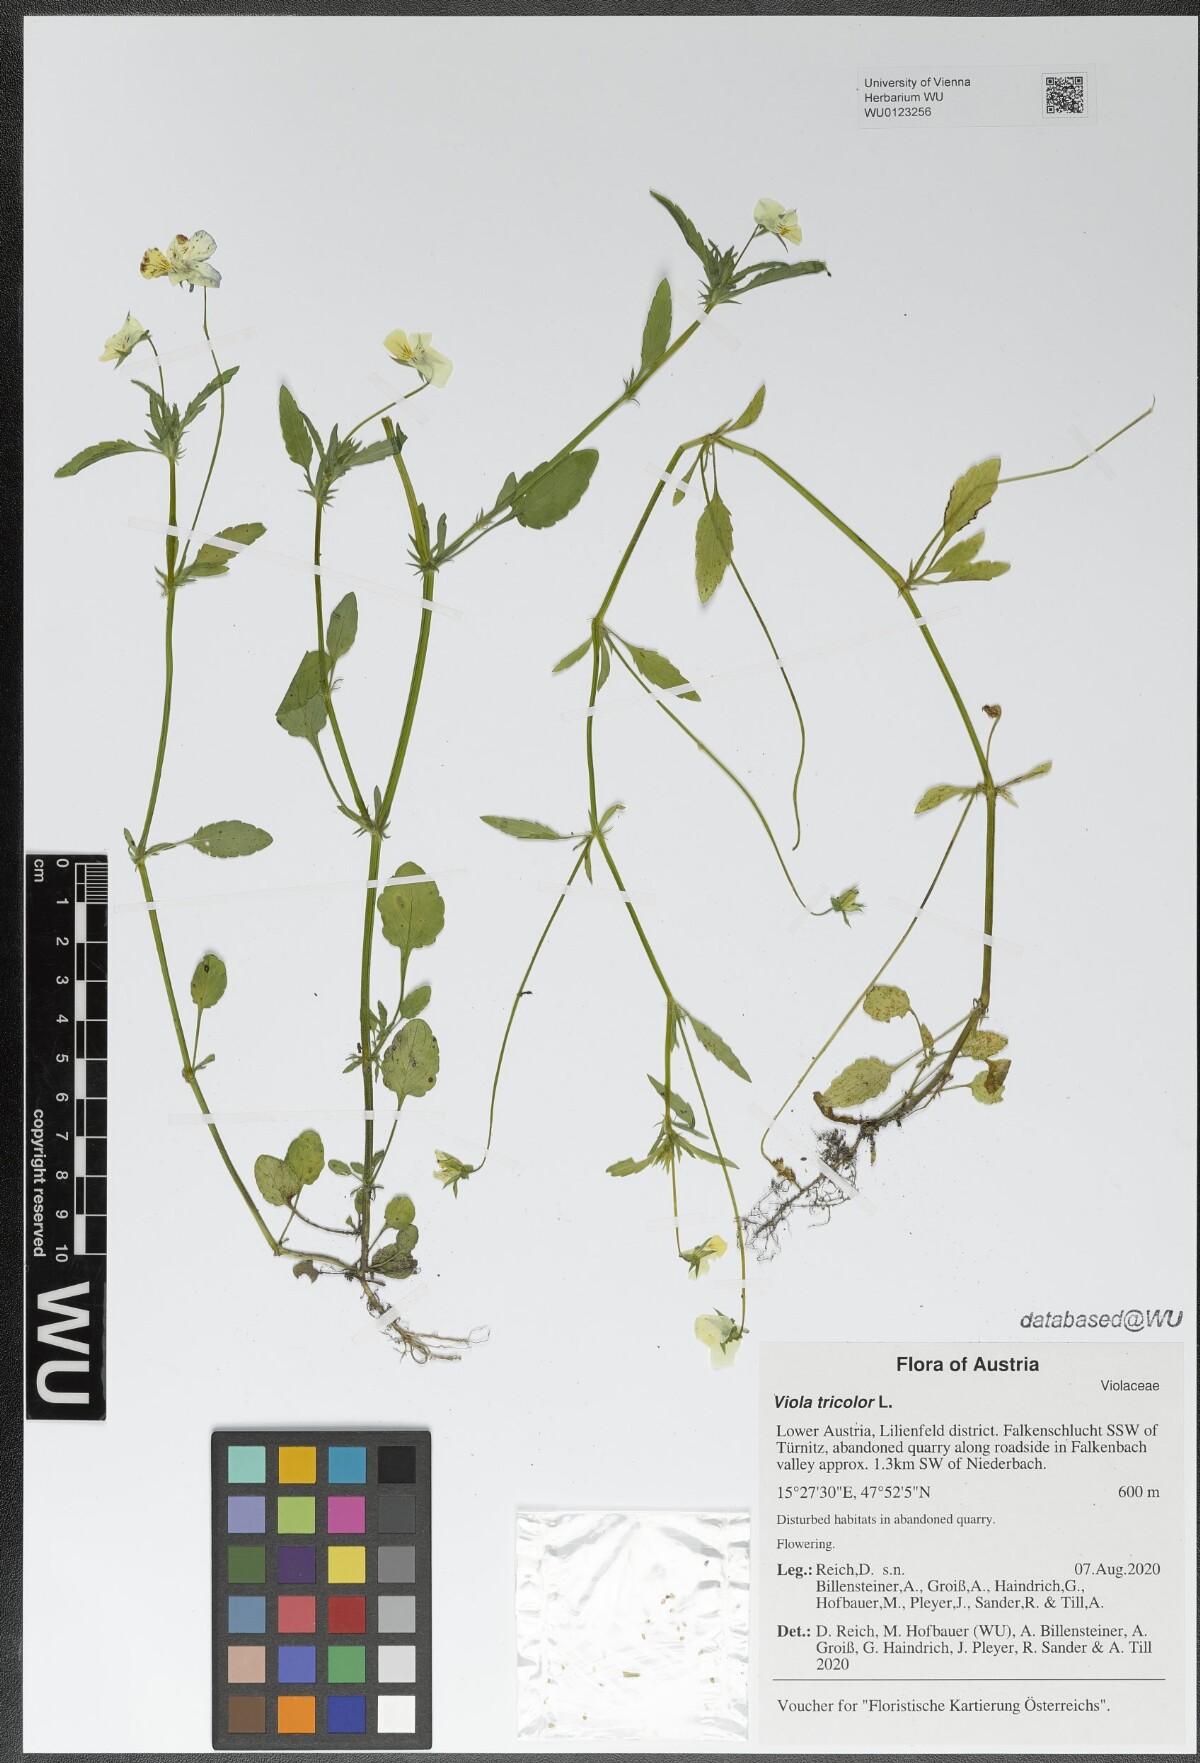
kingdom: Plantae
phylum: Tracheophyta
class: Magnoliopsida
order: Malpighiales
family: Violaceae
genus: Viola
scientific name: Viola tricolor
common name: Pansy
